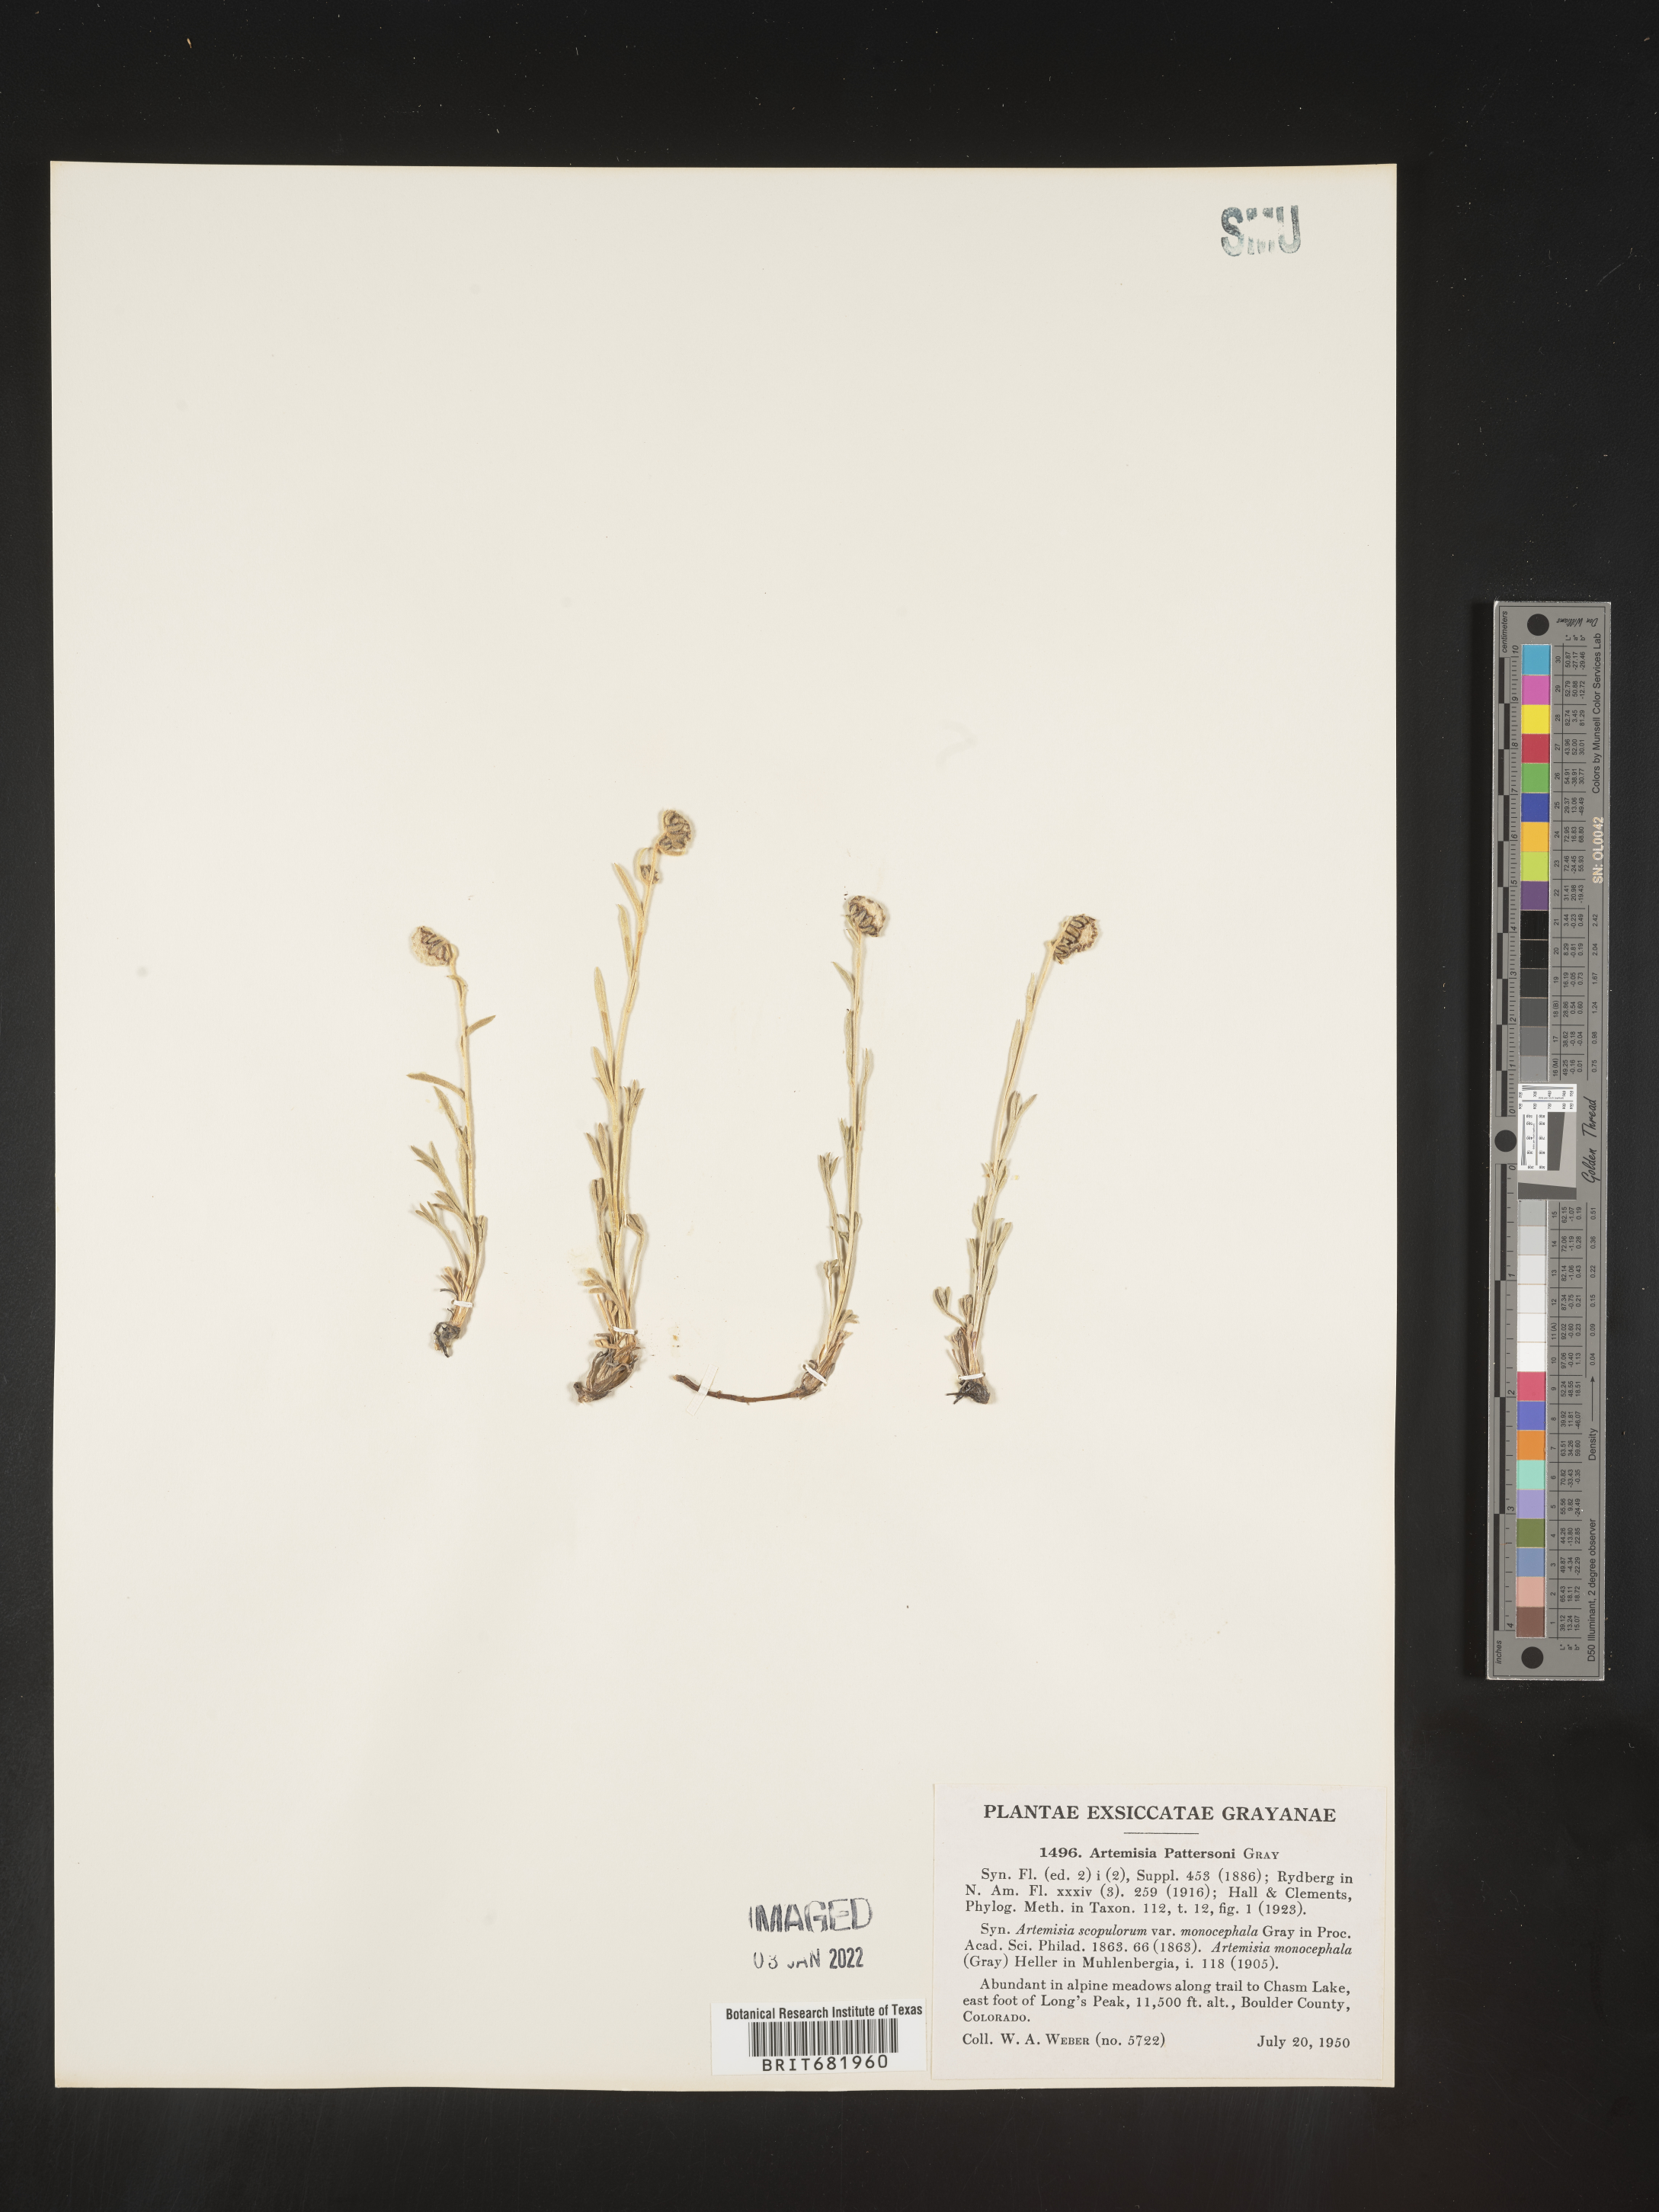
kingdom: Plantae
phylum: Tracheophyta
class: Magnoliopsida
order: Asterales
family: Asteraceae
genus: Delwiensia
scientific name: Delwiensia pattersonii
